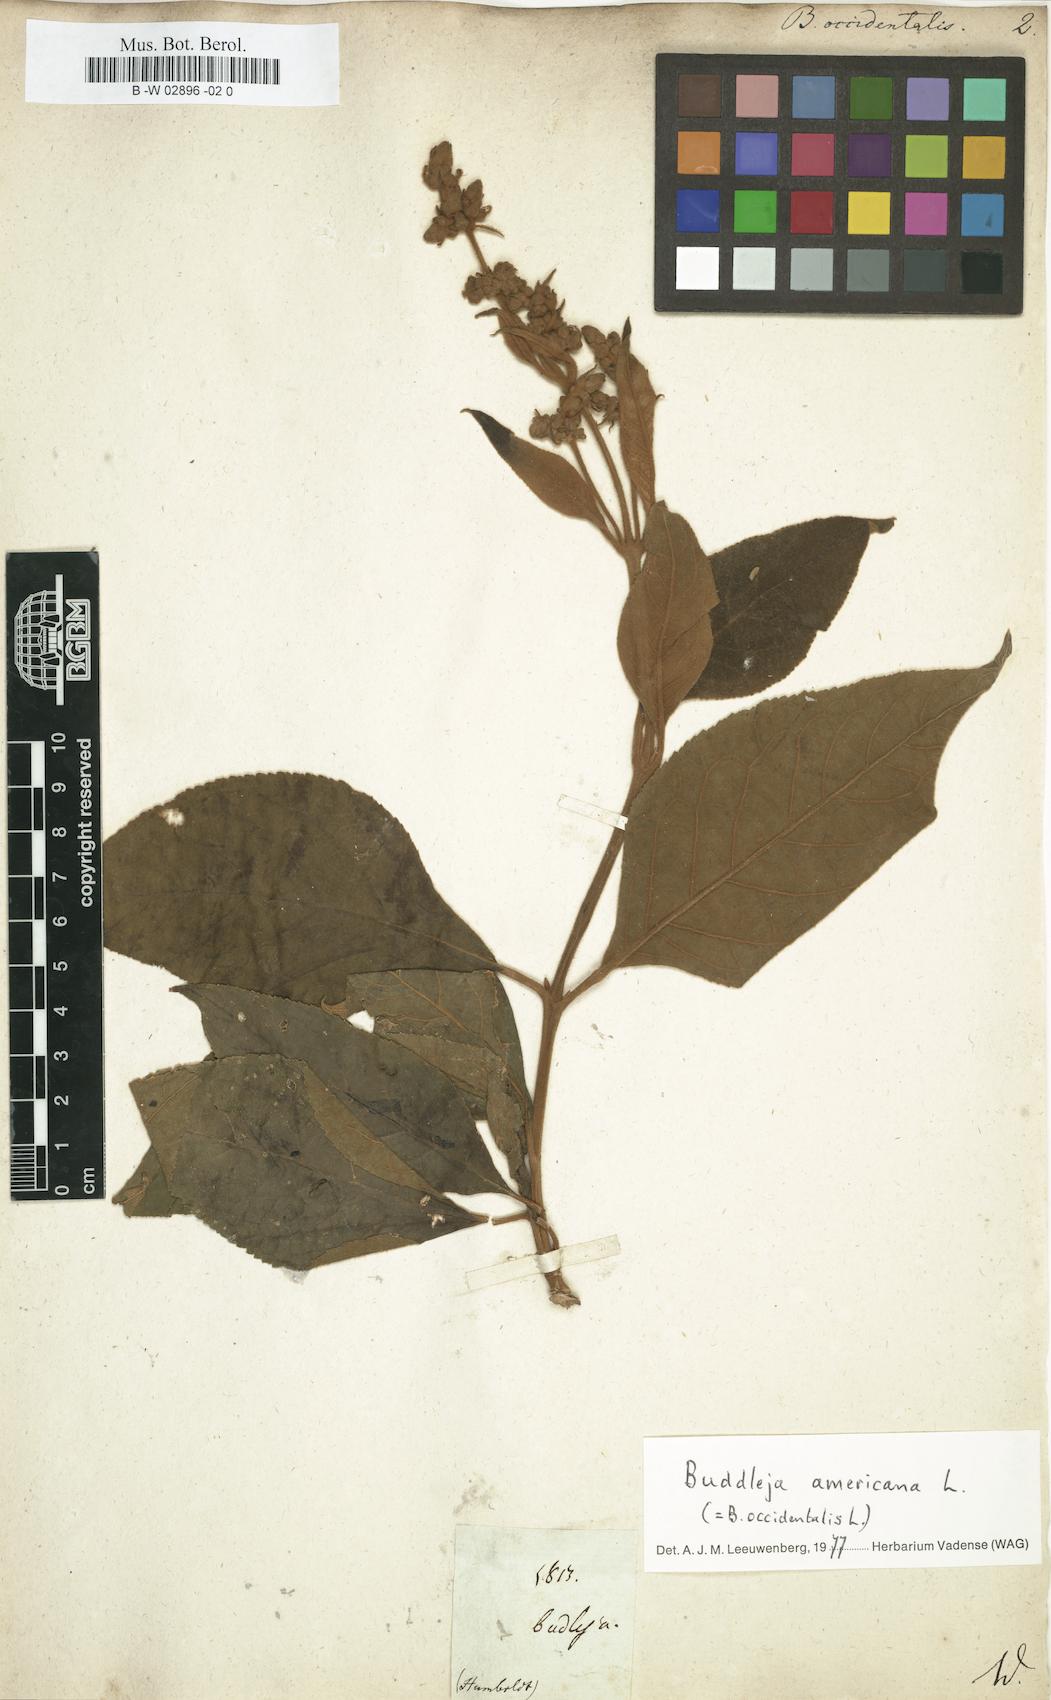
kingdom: Plantae
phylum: Tracheophyta
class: Magnoliopsida
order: Lamiales
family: Scrophulariaceae
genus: Buddleja
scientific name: Buddleja americana
